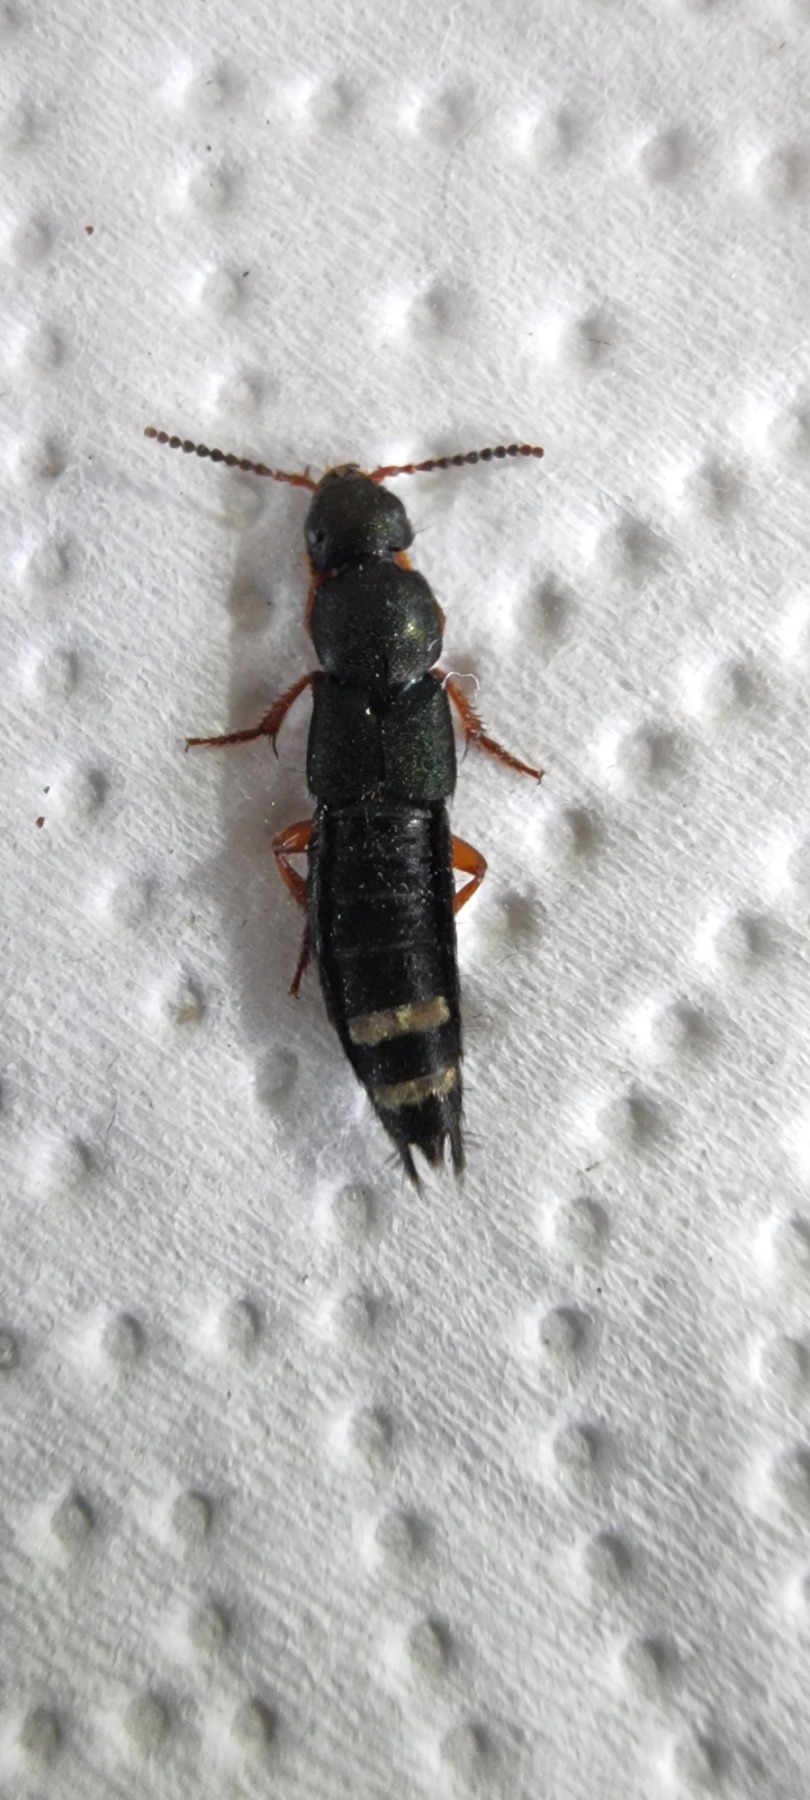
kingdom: Animalia
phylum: Arthropoda
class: Insecta
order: Coleoptera
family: Staphylinidae
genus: Platydracus
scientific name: Platydracus fulvipes
